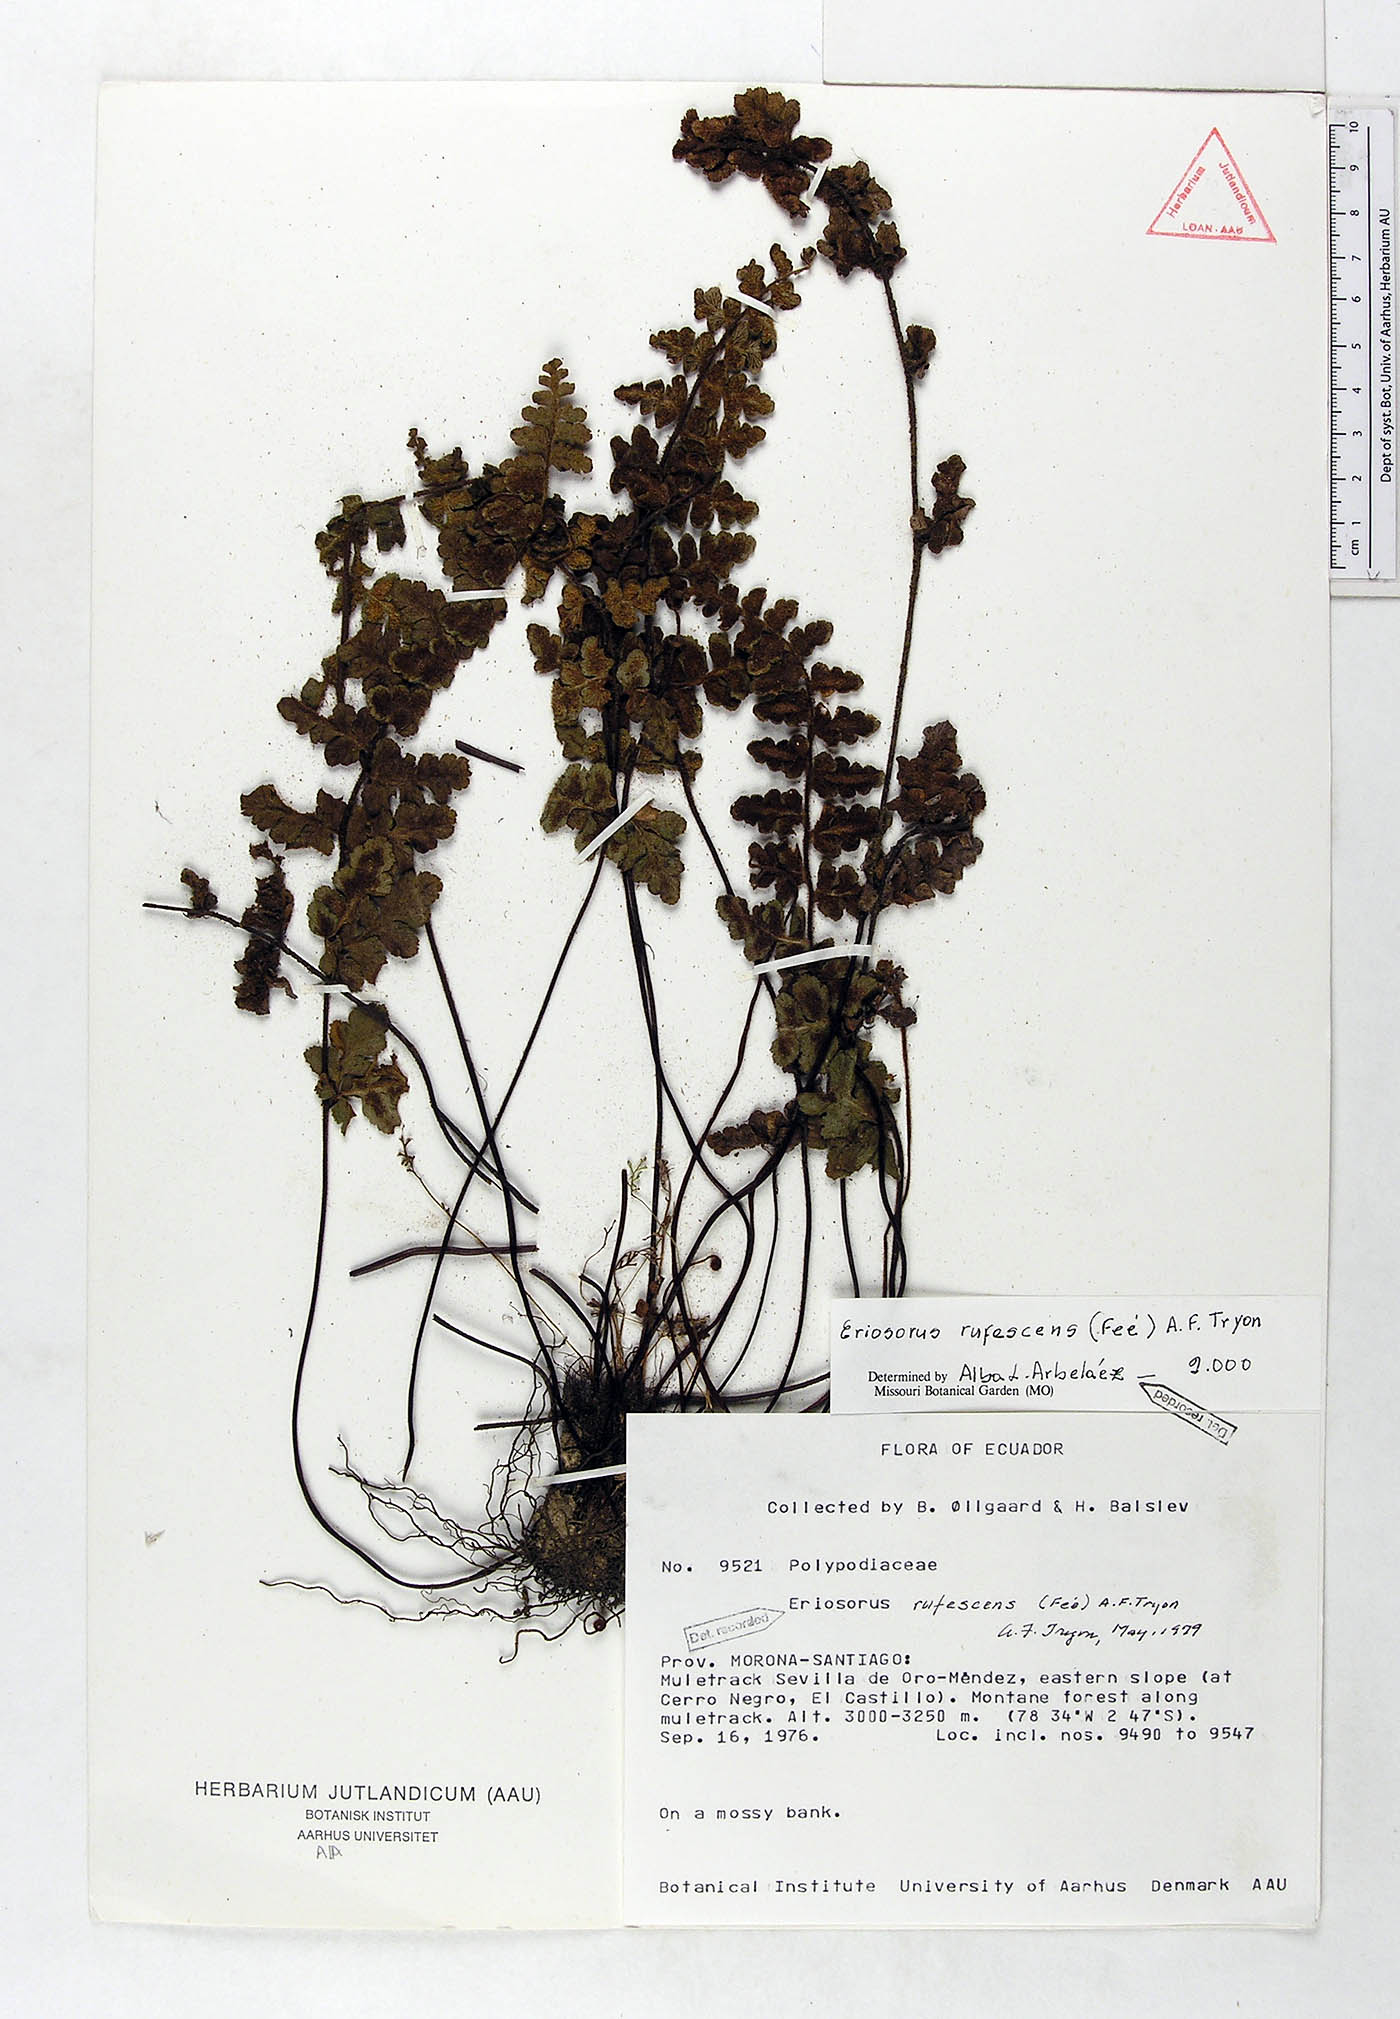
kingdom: Plantae
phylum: Tracheophyta
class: Polypodiopsida
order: Polypodiales
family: Pteridaceae
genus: Jamesonia
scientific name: Jamesonia rufescens
